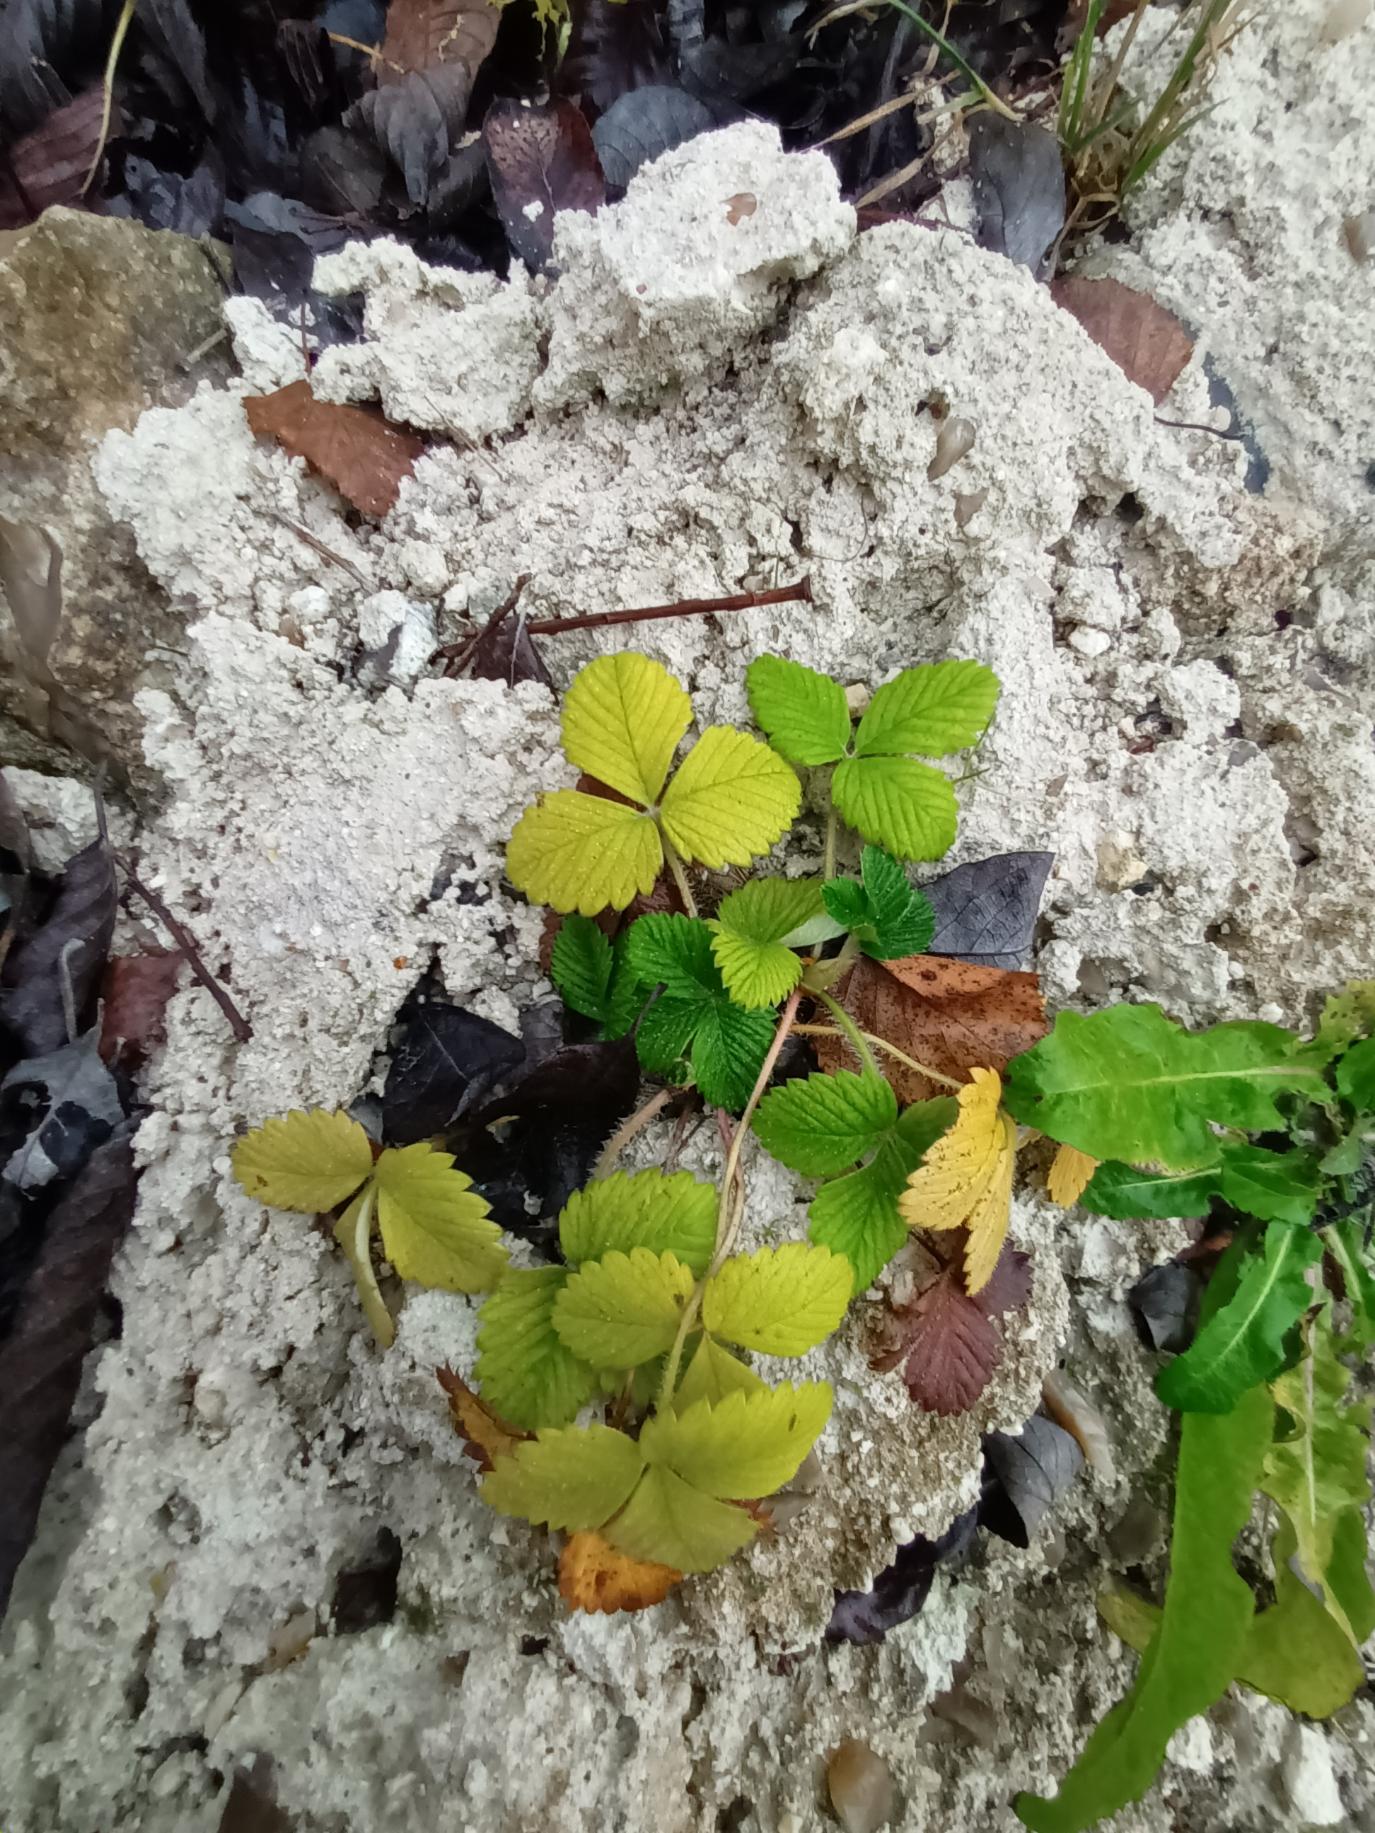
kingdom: Plantae
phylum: Tracheophyta
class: Magnoliopsida
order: Rosales
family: Rosaceae
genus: Fragaria
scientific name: Fragaria vesca
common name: Skov-jordbær
